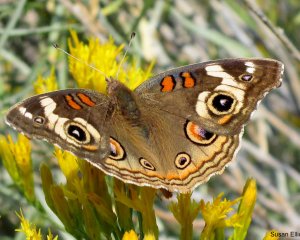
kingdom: Animalia
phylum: Arthropoda
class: Insecta
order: Lepidoptera
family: Nymphalidae
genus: Junonia
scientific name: Junonia coenia
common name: Common Buckeye
